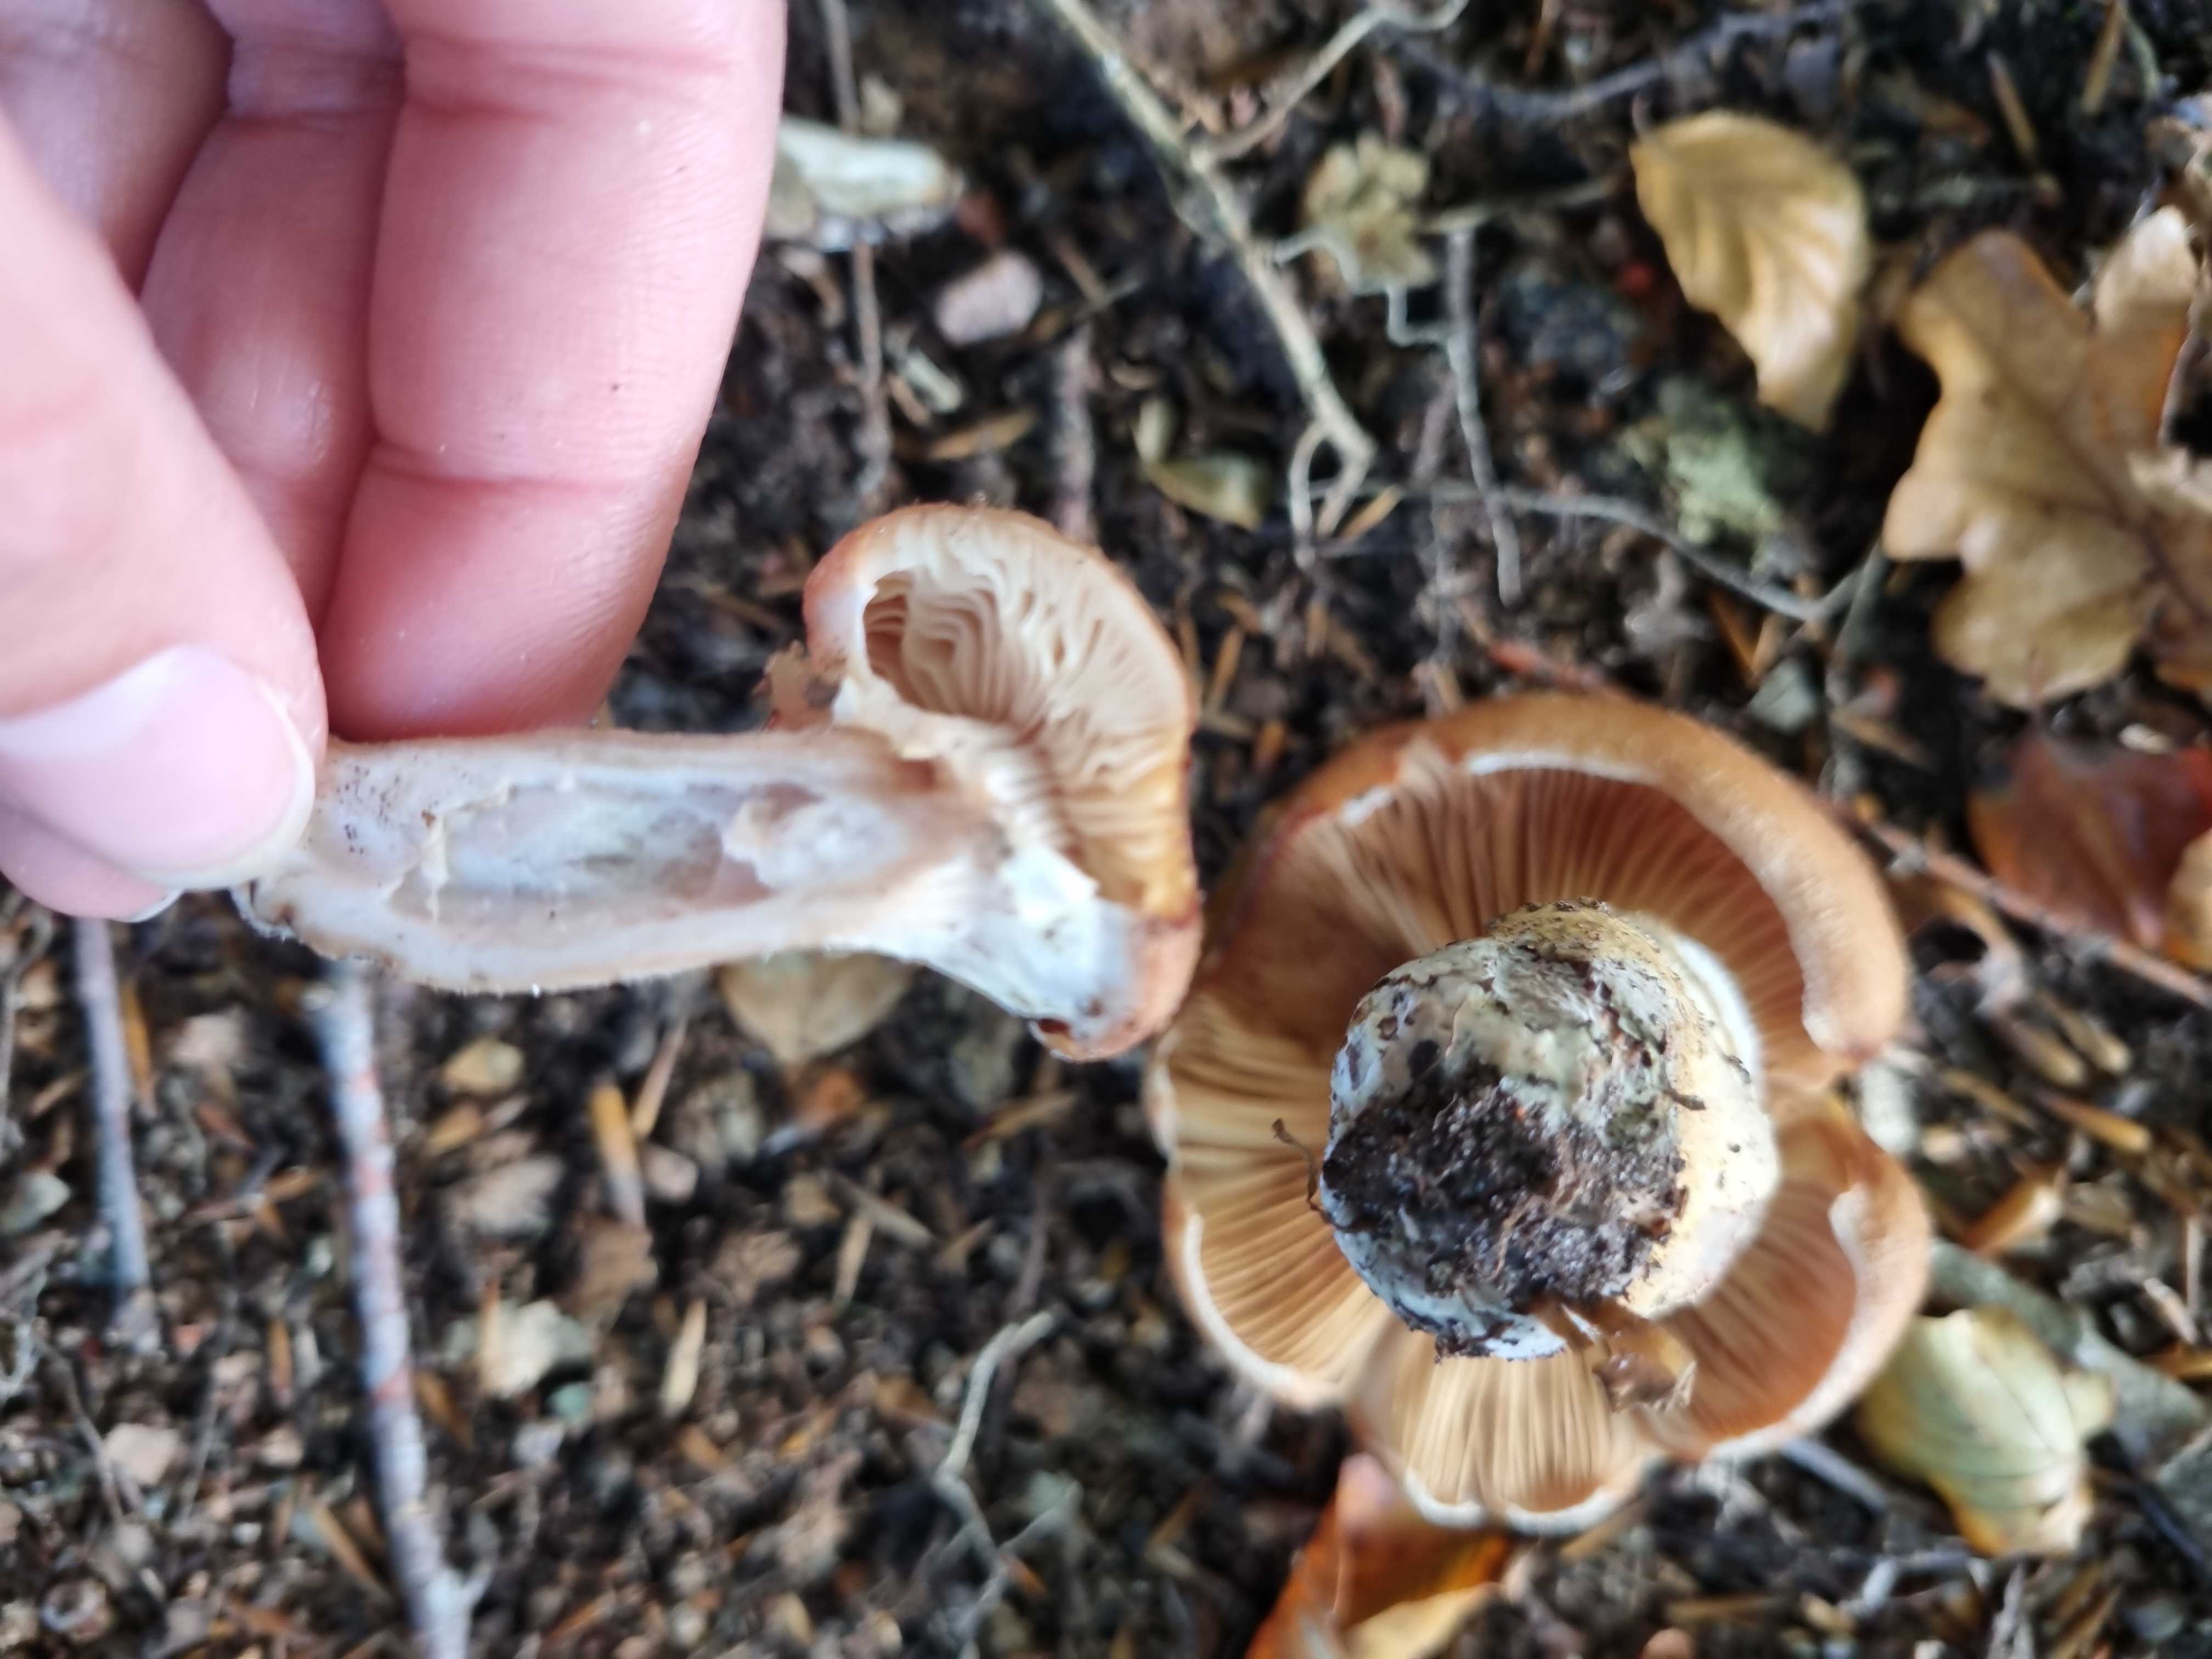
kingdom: Fungi
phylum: Basidiomycota
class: Agaricomycetes
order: Agaricales
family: Physalacriaceae
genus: Armillaria
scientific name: Armillaria lutea
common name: køllestokket honningsvamp
